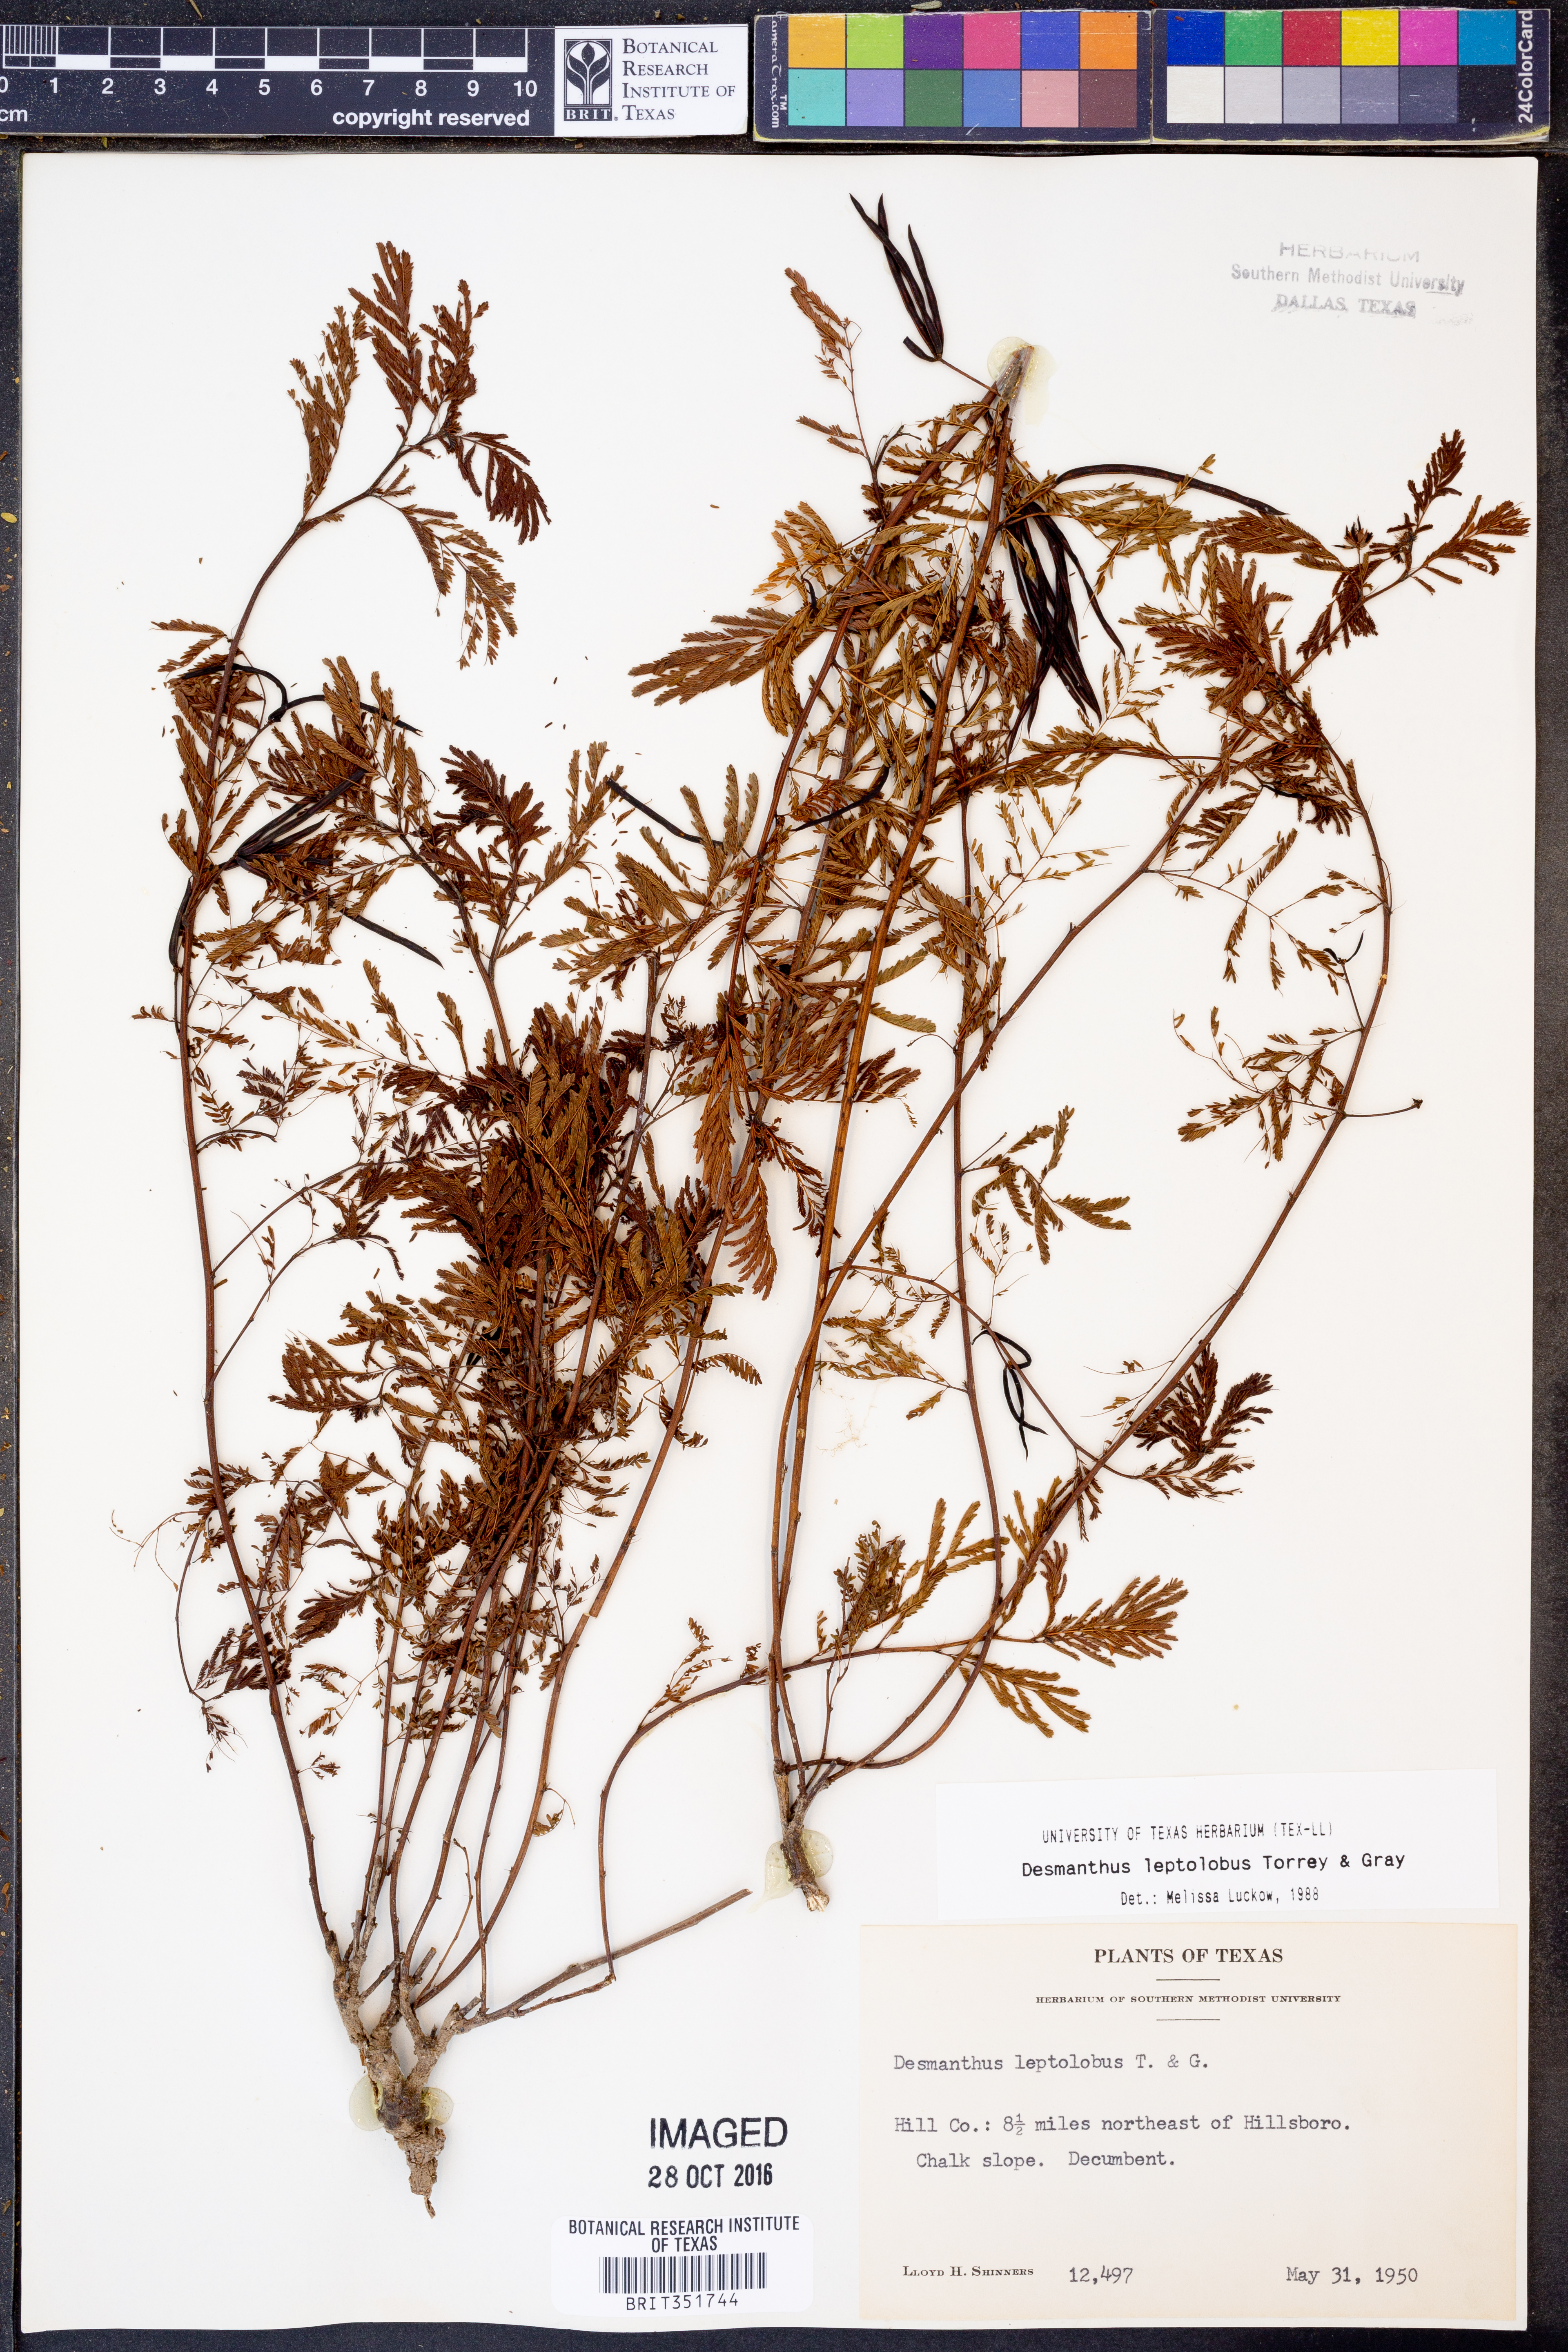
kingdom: Plantae
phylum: Tracheophyta
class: Magnoliopsida
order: Fabales
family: Fabaceae
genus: Desmanthus
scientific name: Desmanthus leptolobus
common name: Prairie-mimosa
